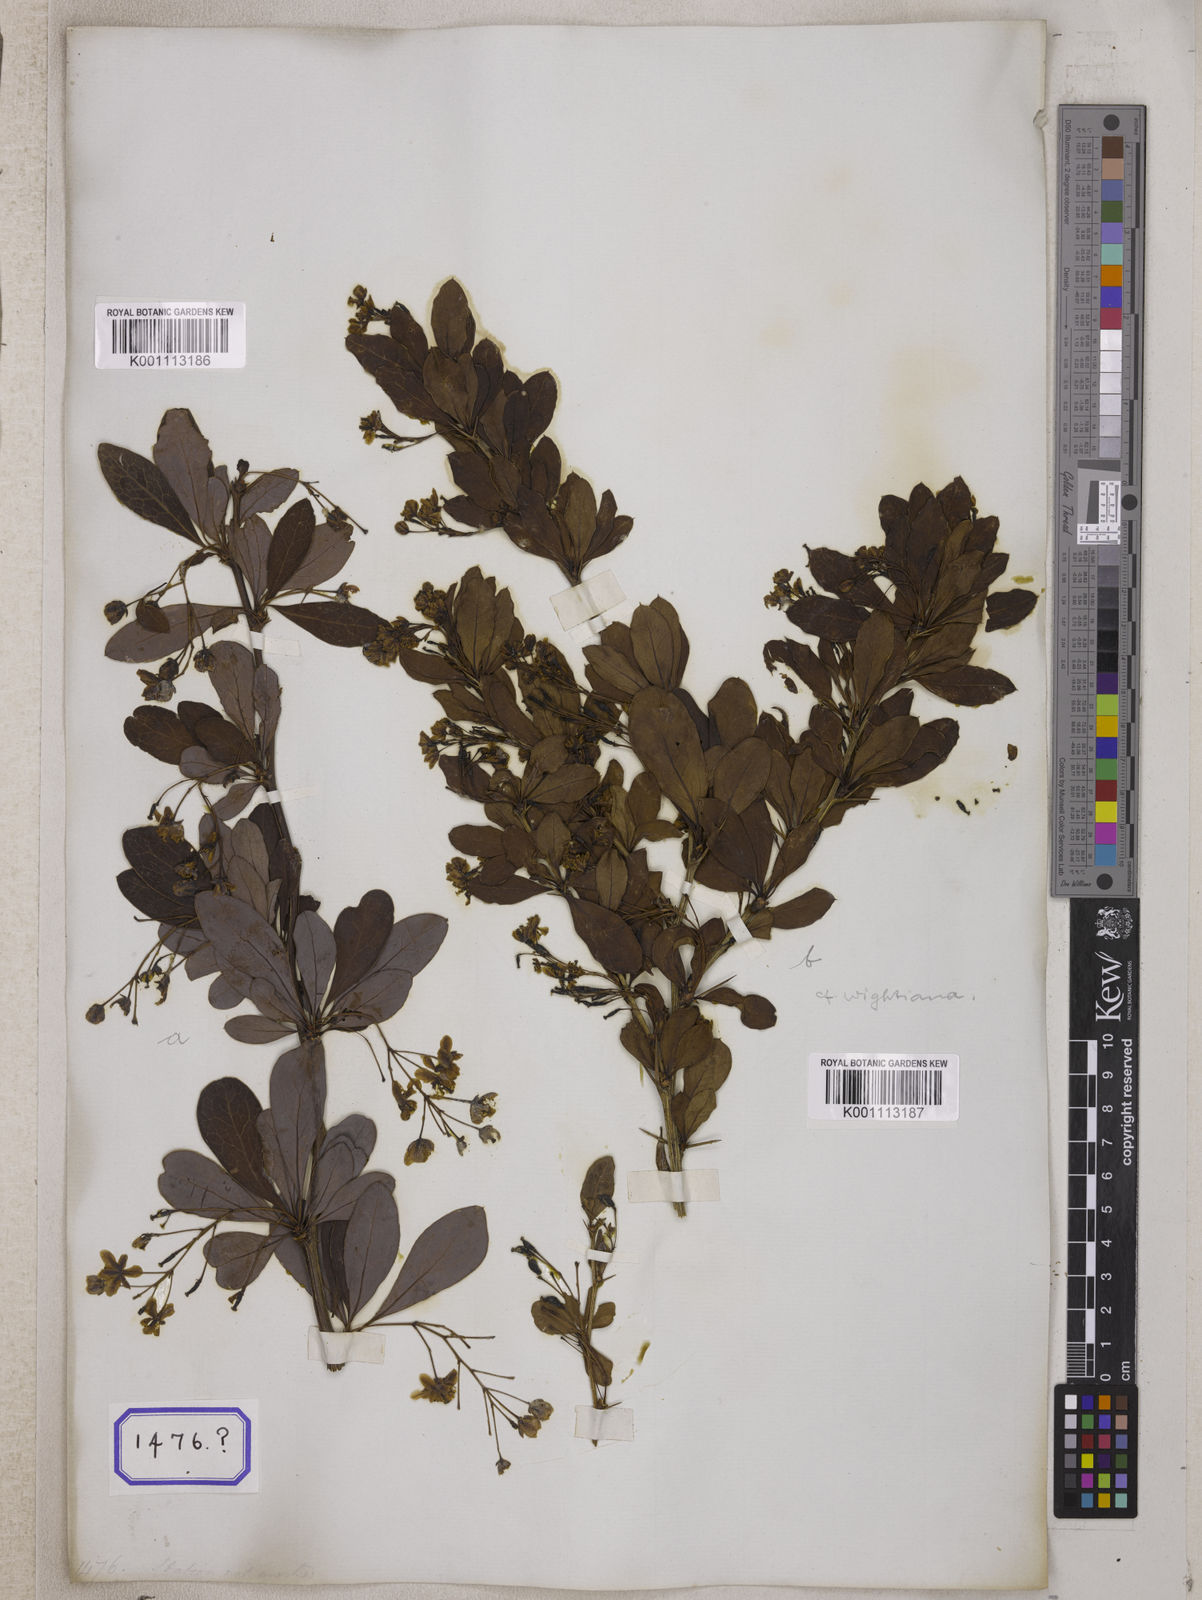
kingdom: Plantae
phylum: Tracheophyta
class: Magnoliopsida
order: Ranunculales
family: Berberidaceae
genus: Berberis
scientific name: Berberis tinctoria
